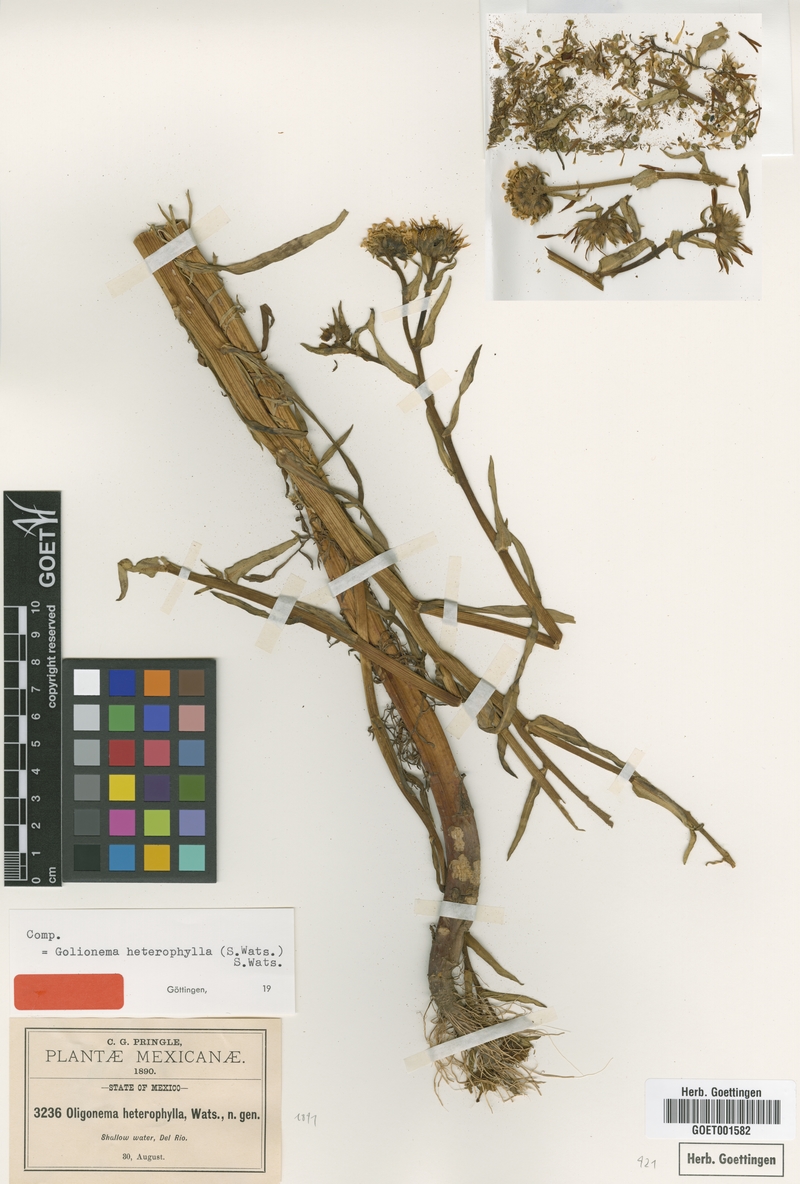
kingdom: Plantae
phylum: Tracheophyta
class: Magnoliopsida
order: Asterales
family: Asteraceae
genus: Grindelia
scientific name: Grindelia leptocarpa
